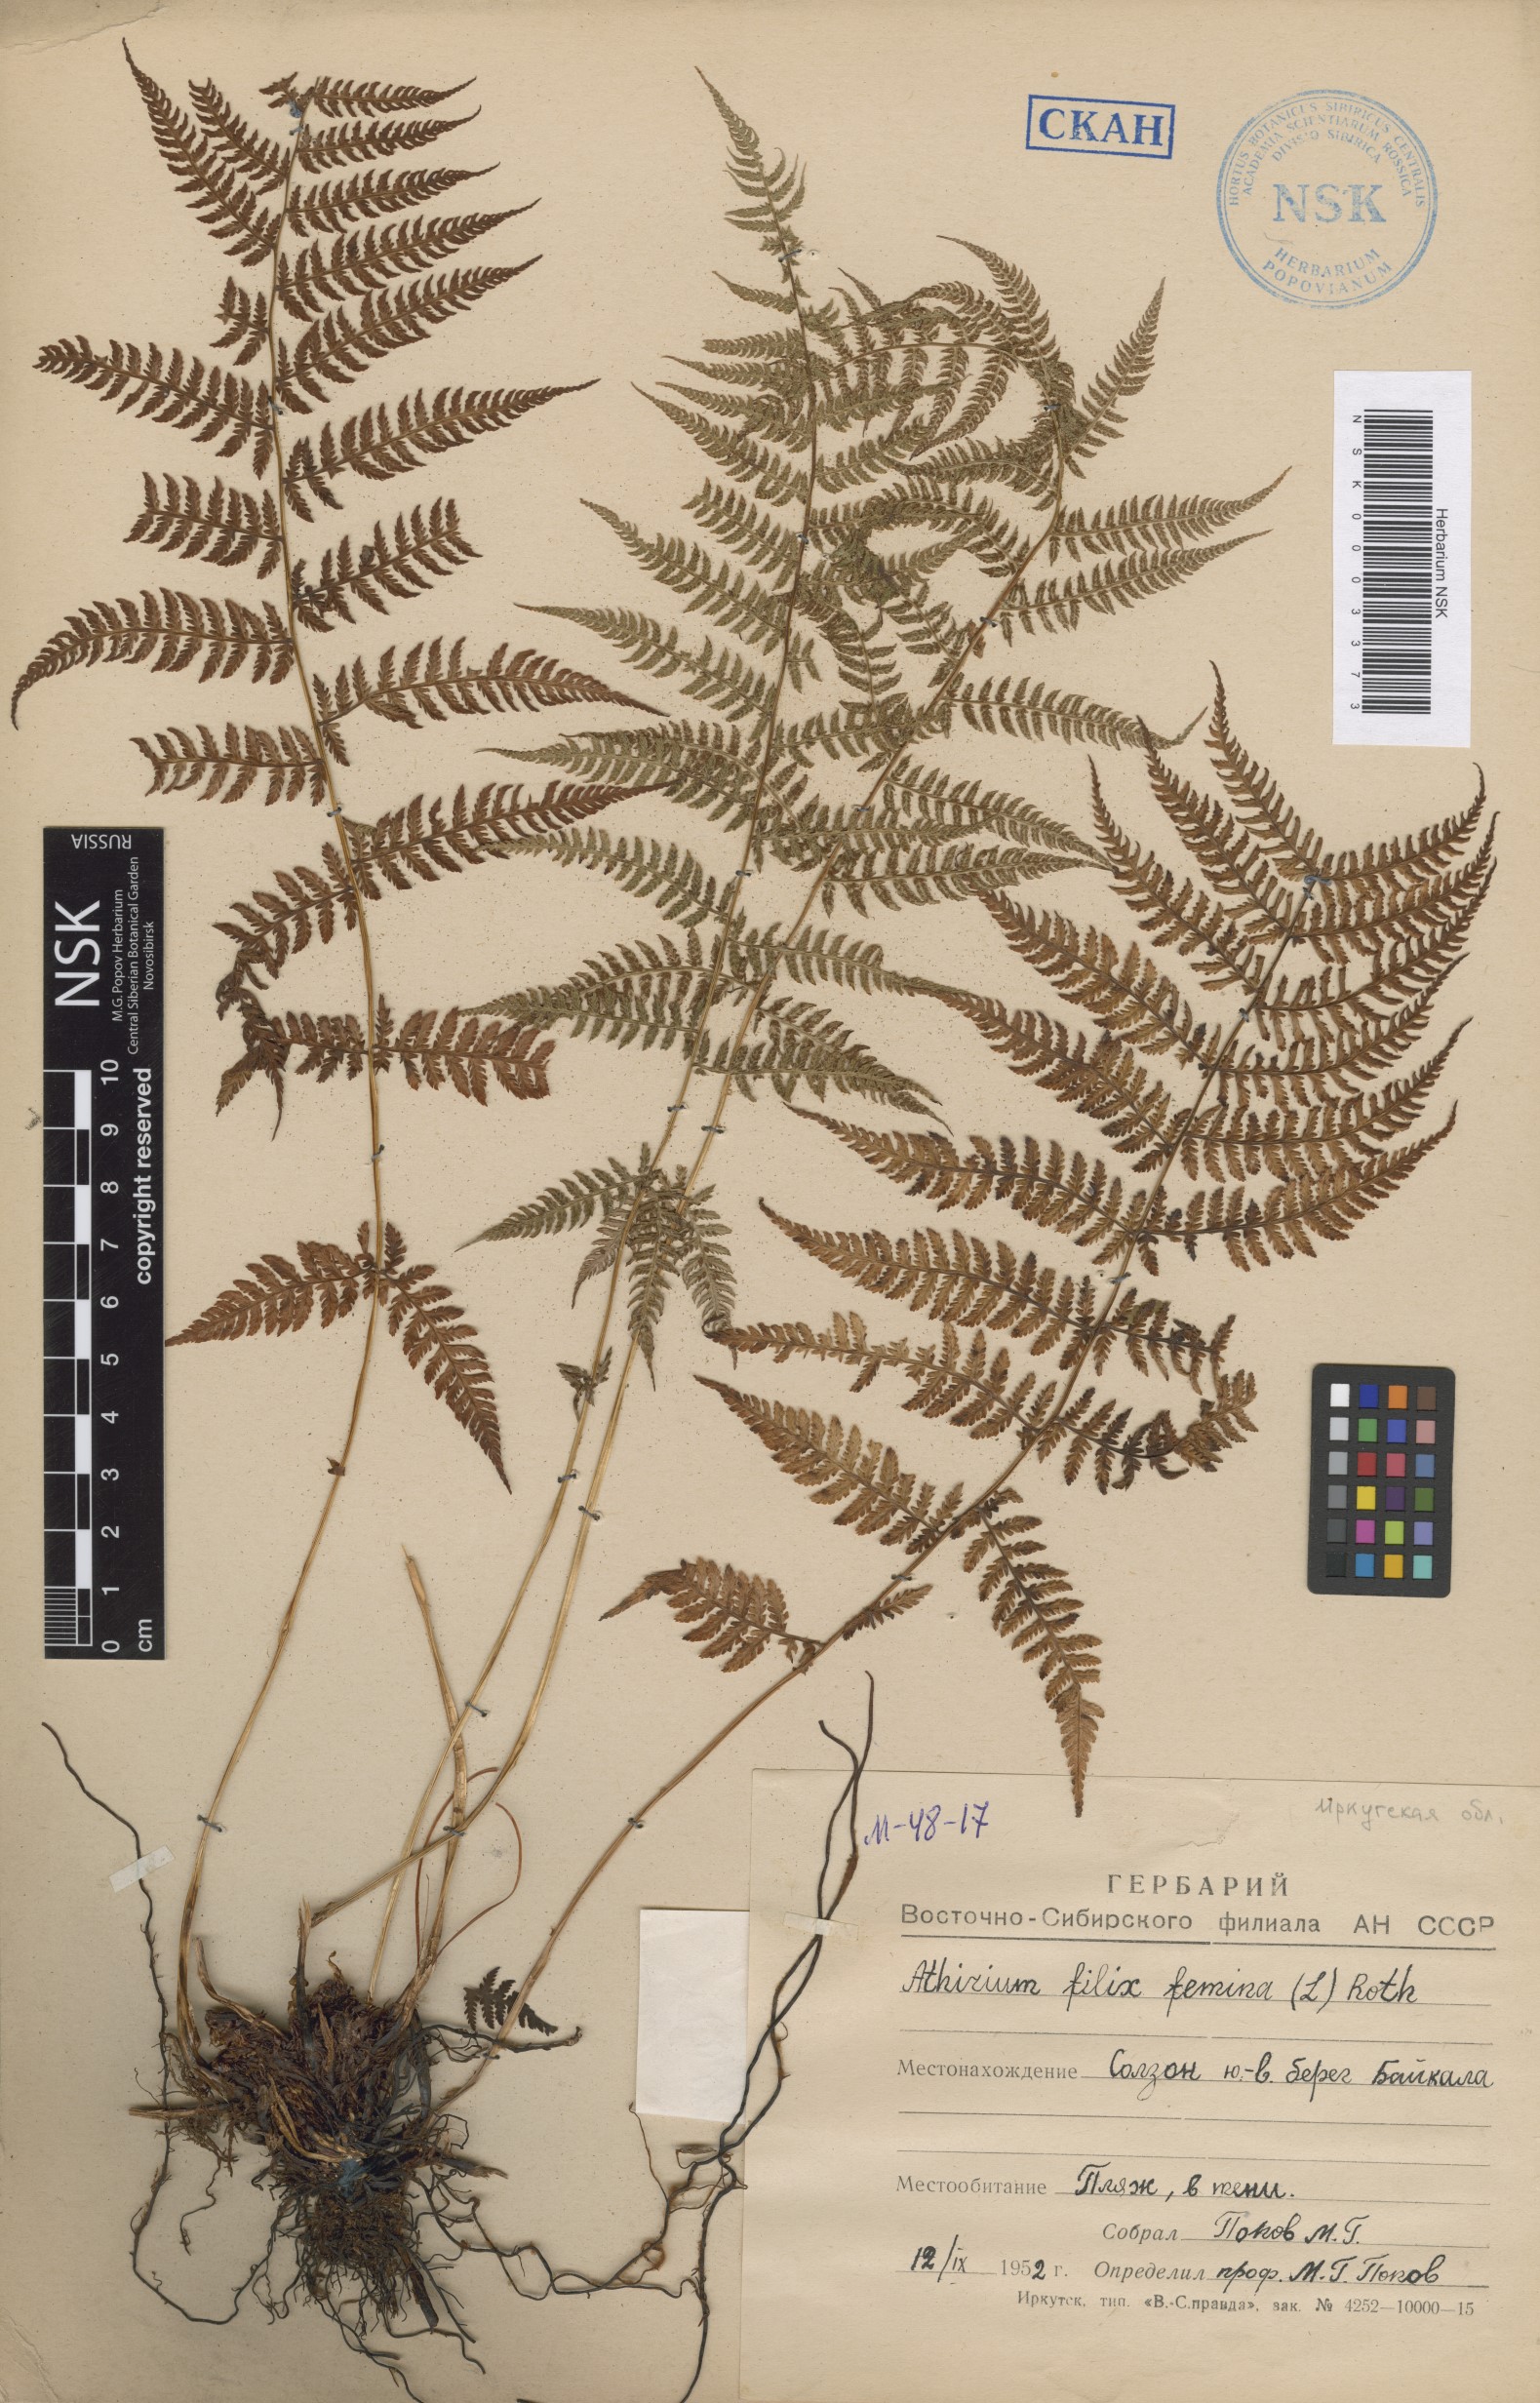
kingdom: Plantae
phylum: Tracheophyta
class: Polypodiopsida
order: Polypodiales
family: Athyriaceae
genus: Athyrium
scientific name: Athyrium filix-femina
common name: Lady fern
